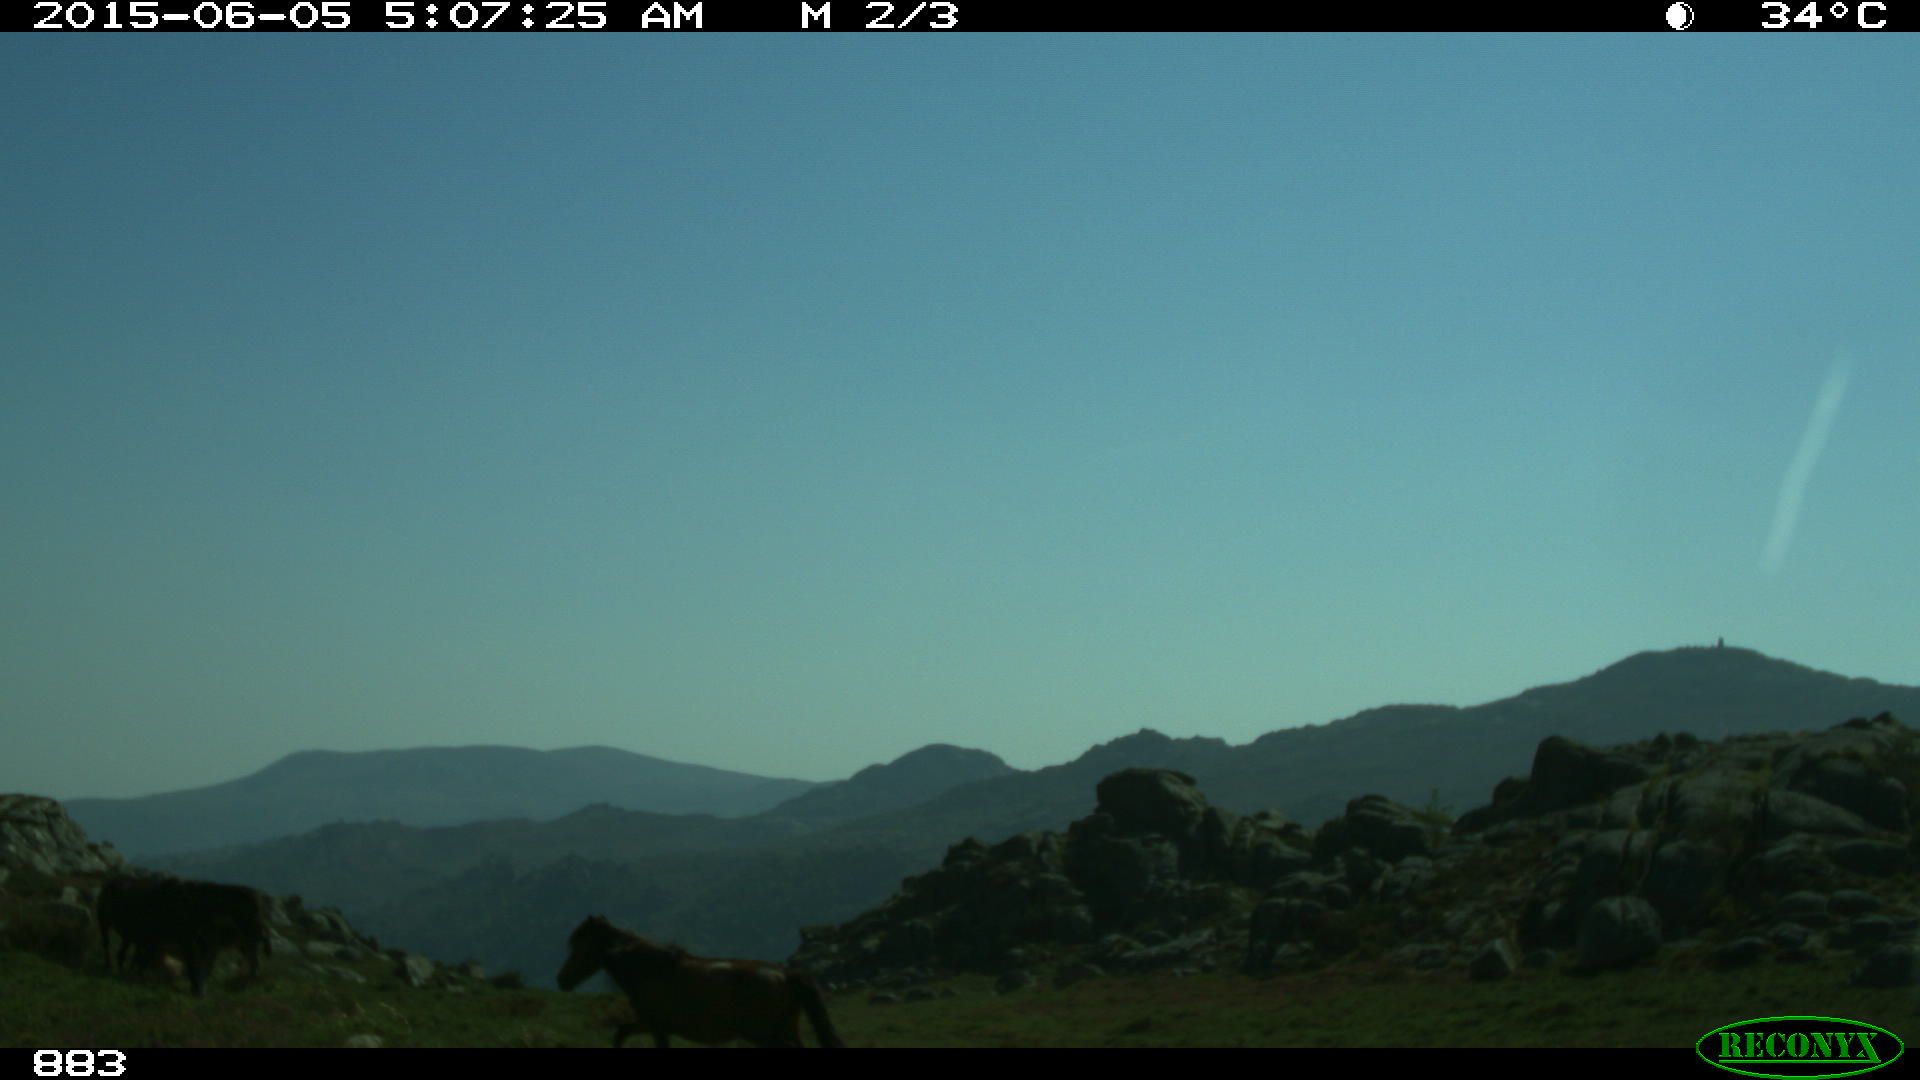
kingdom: Animalia
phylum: Chordata
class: Mammalia
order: Perissodactyla
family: Equidae
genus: Equus
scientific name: Equus caballus
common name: Horse
